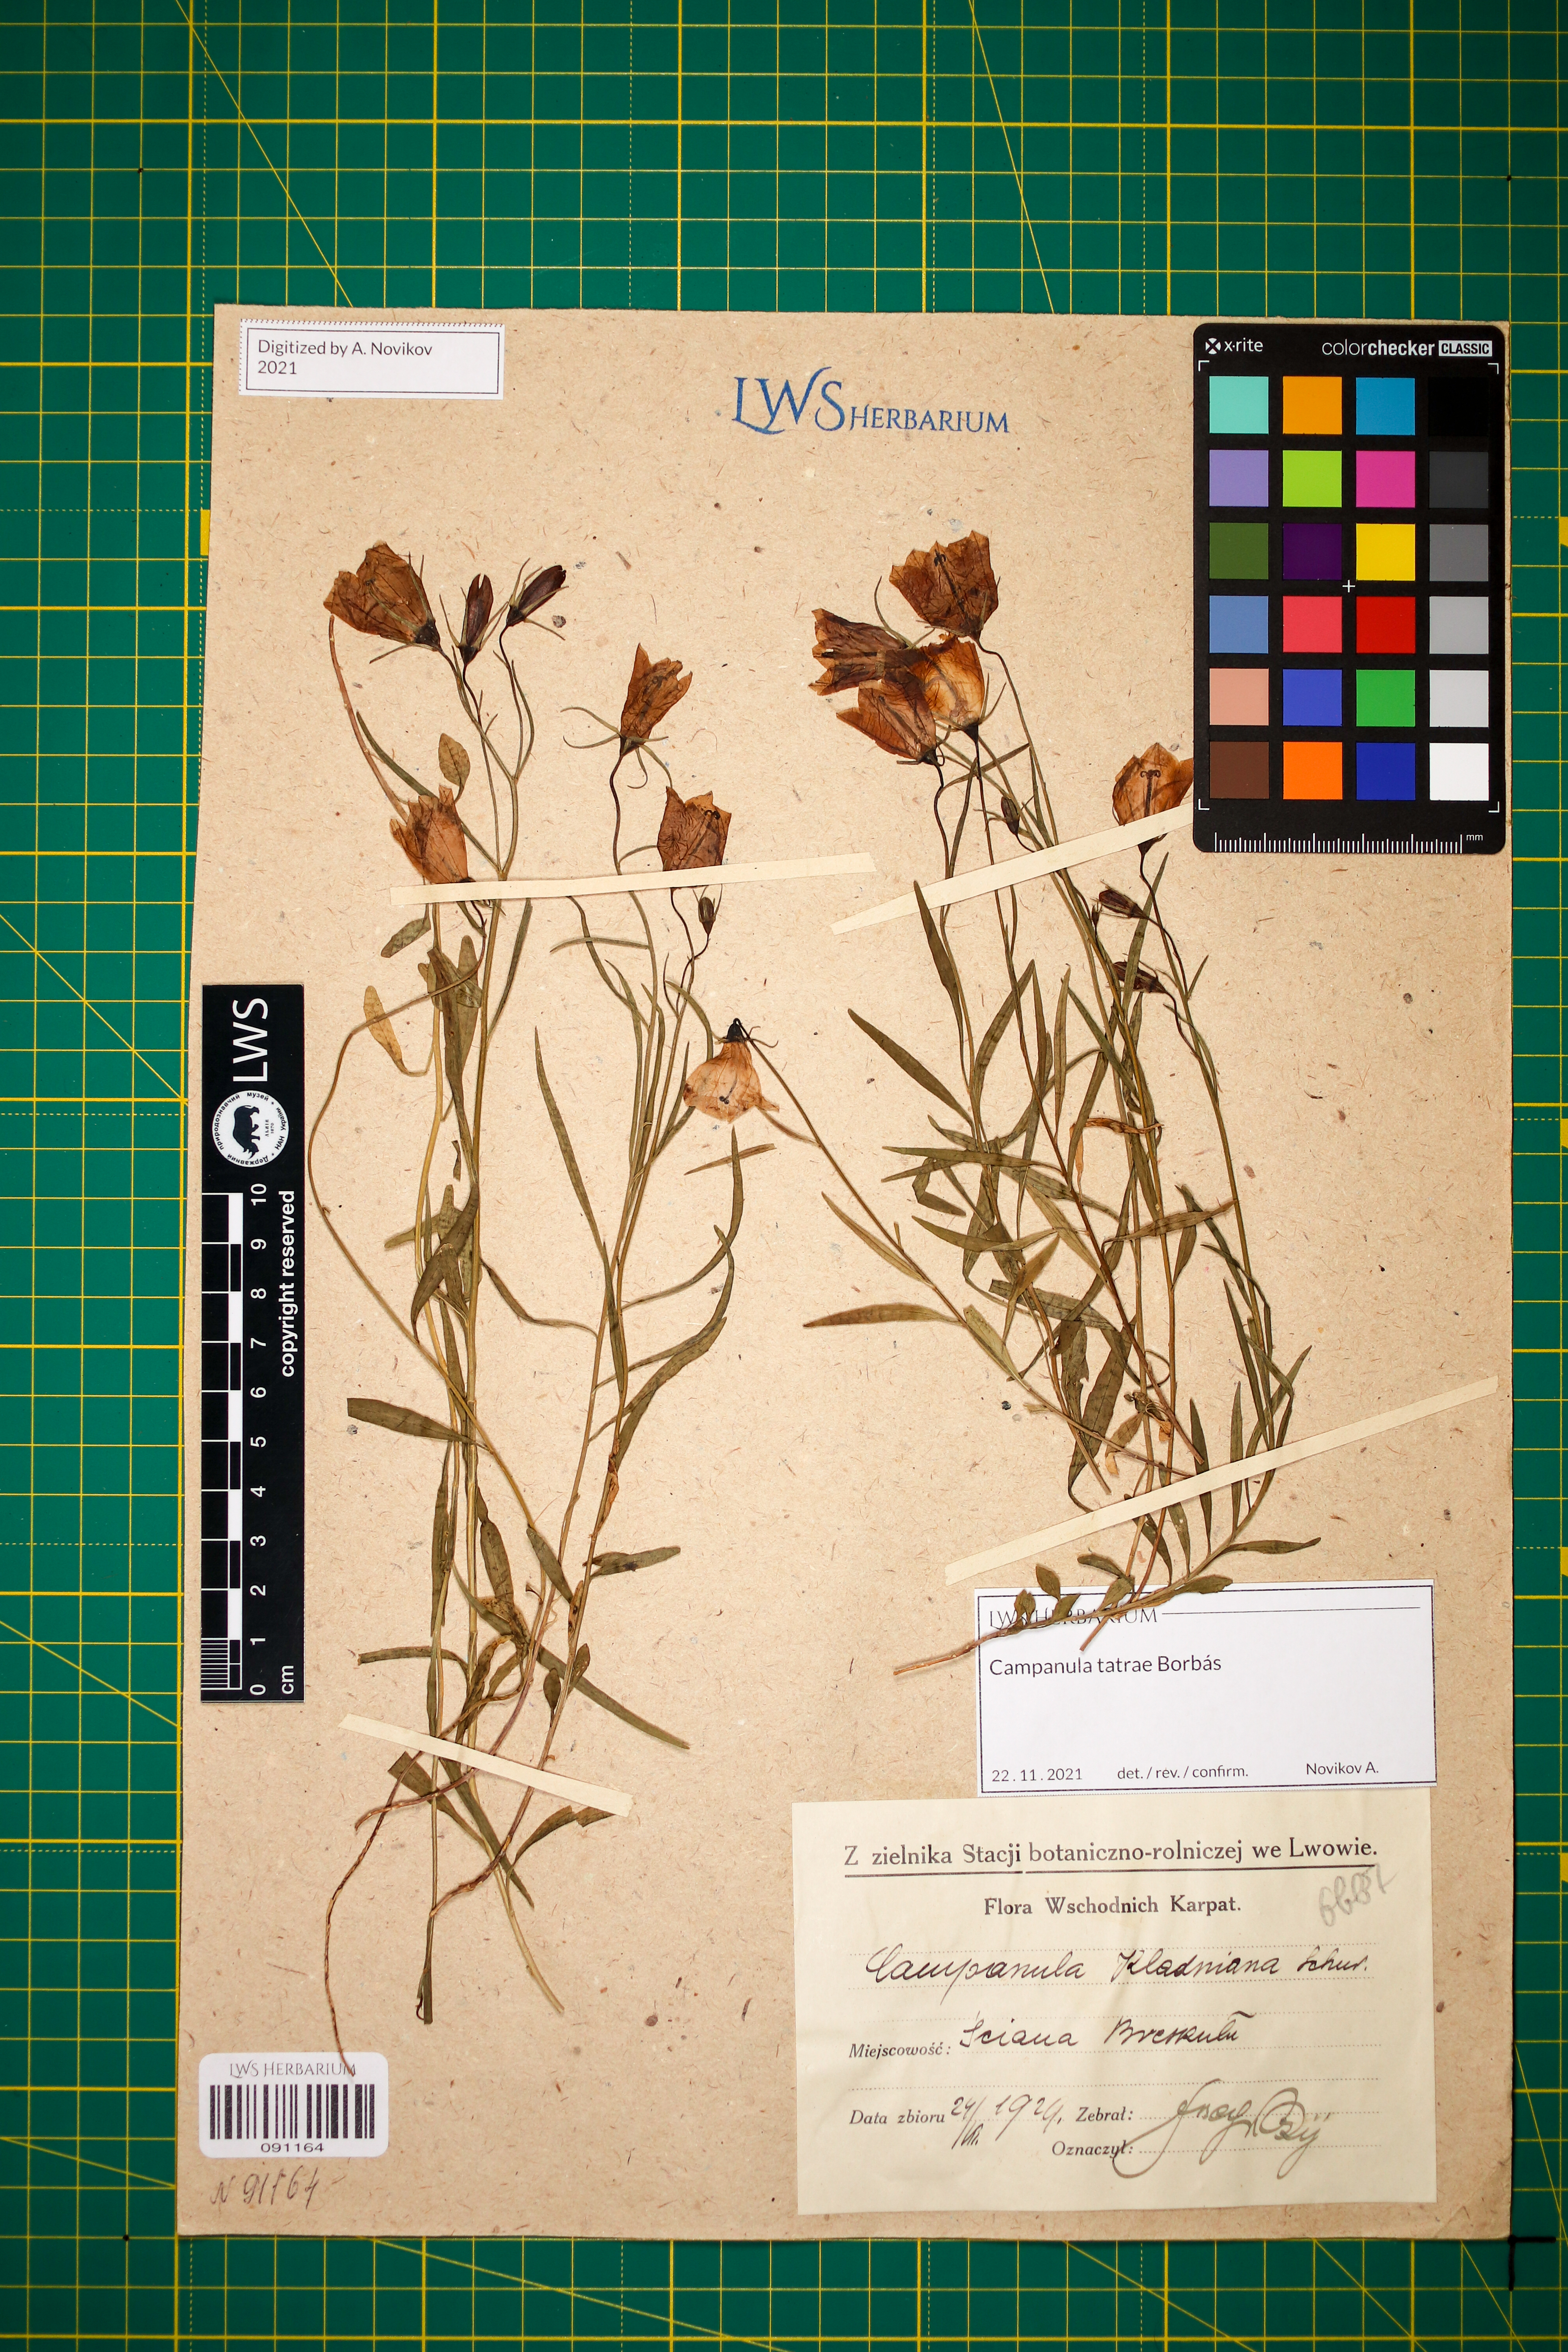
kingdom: Plantae
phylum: Tracheophyta
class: Magnoliopsida
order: Asterales
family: Campanulaceae
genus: Campanula
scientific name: Campanula kladniana
